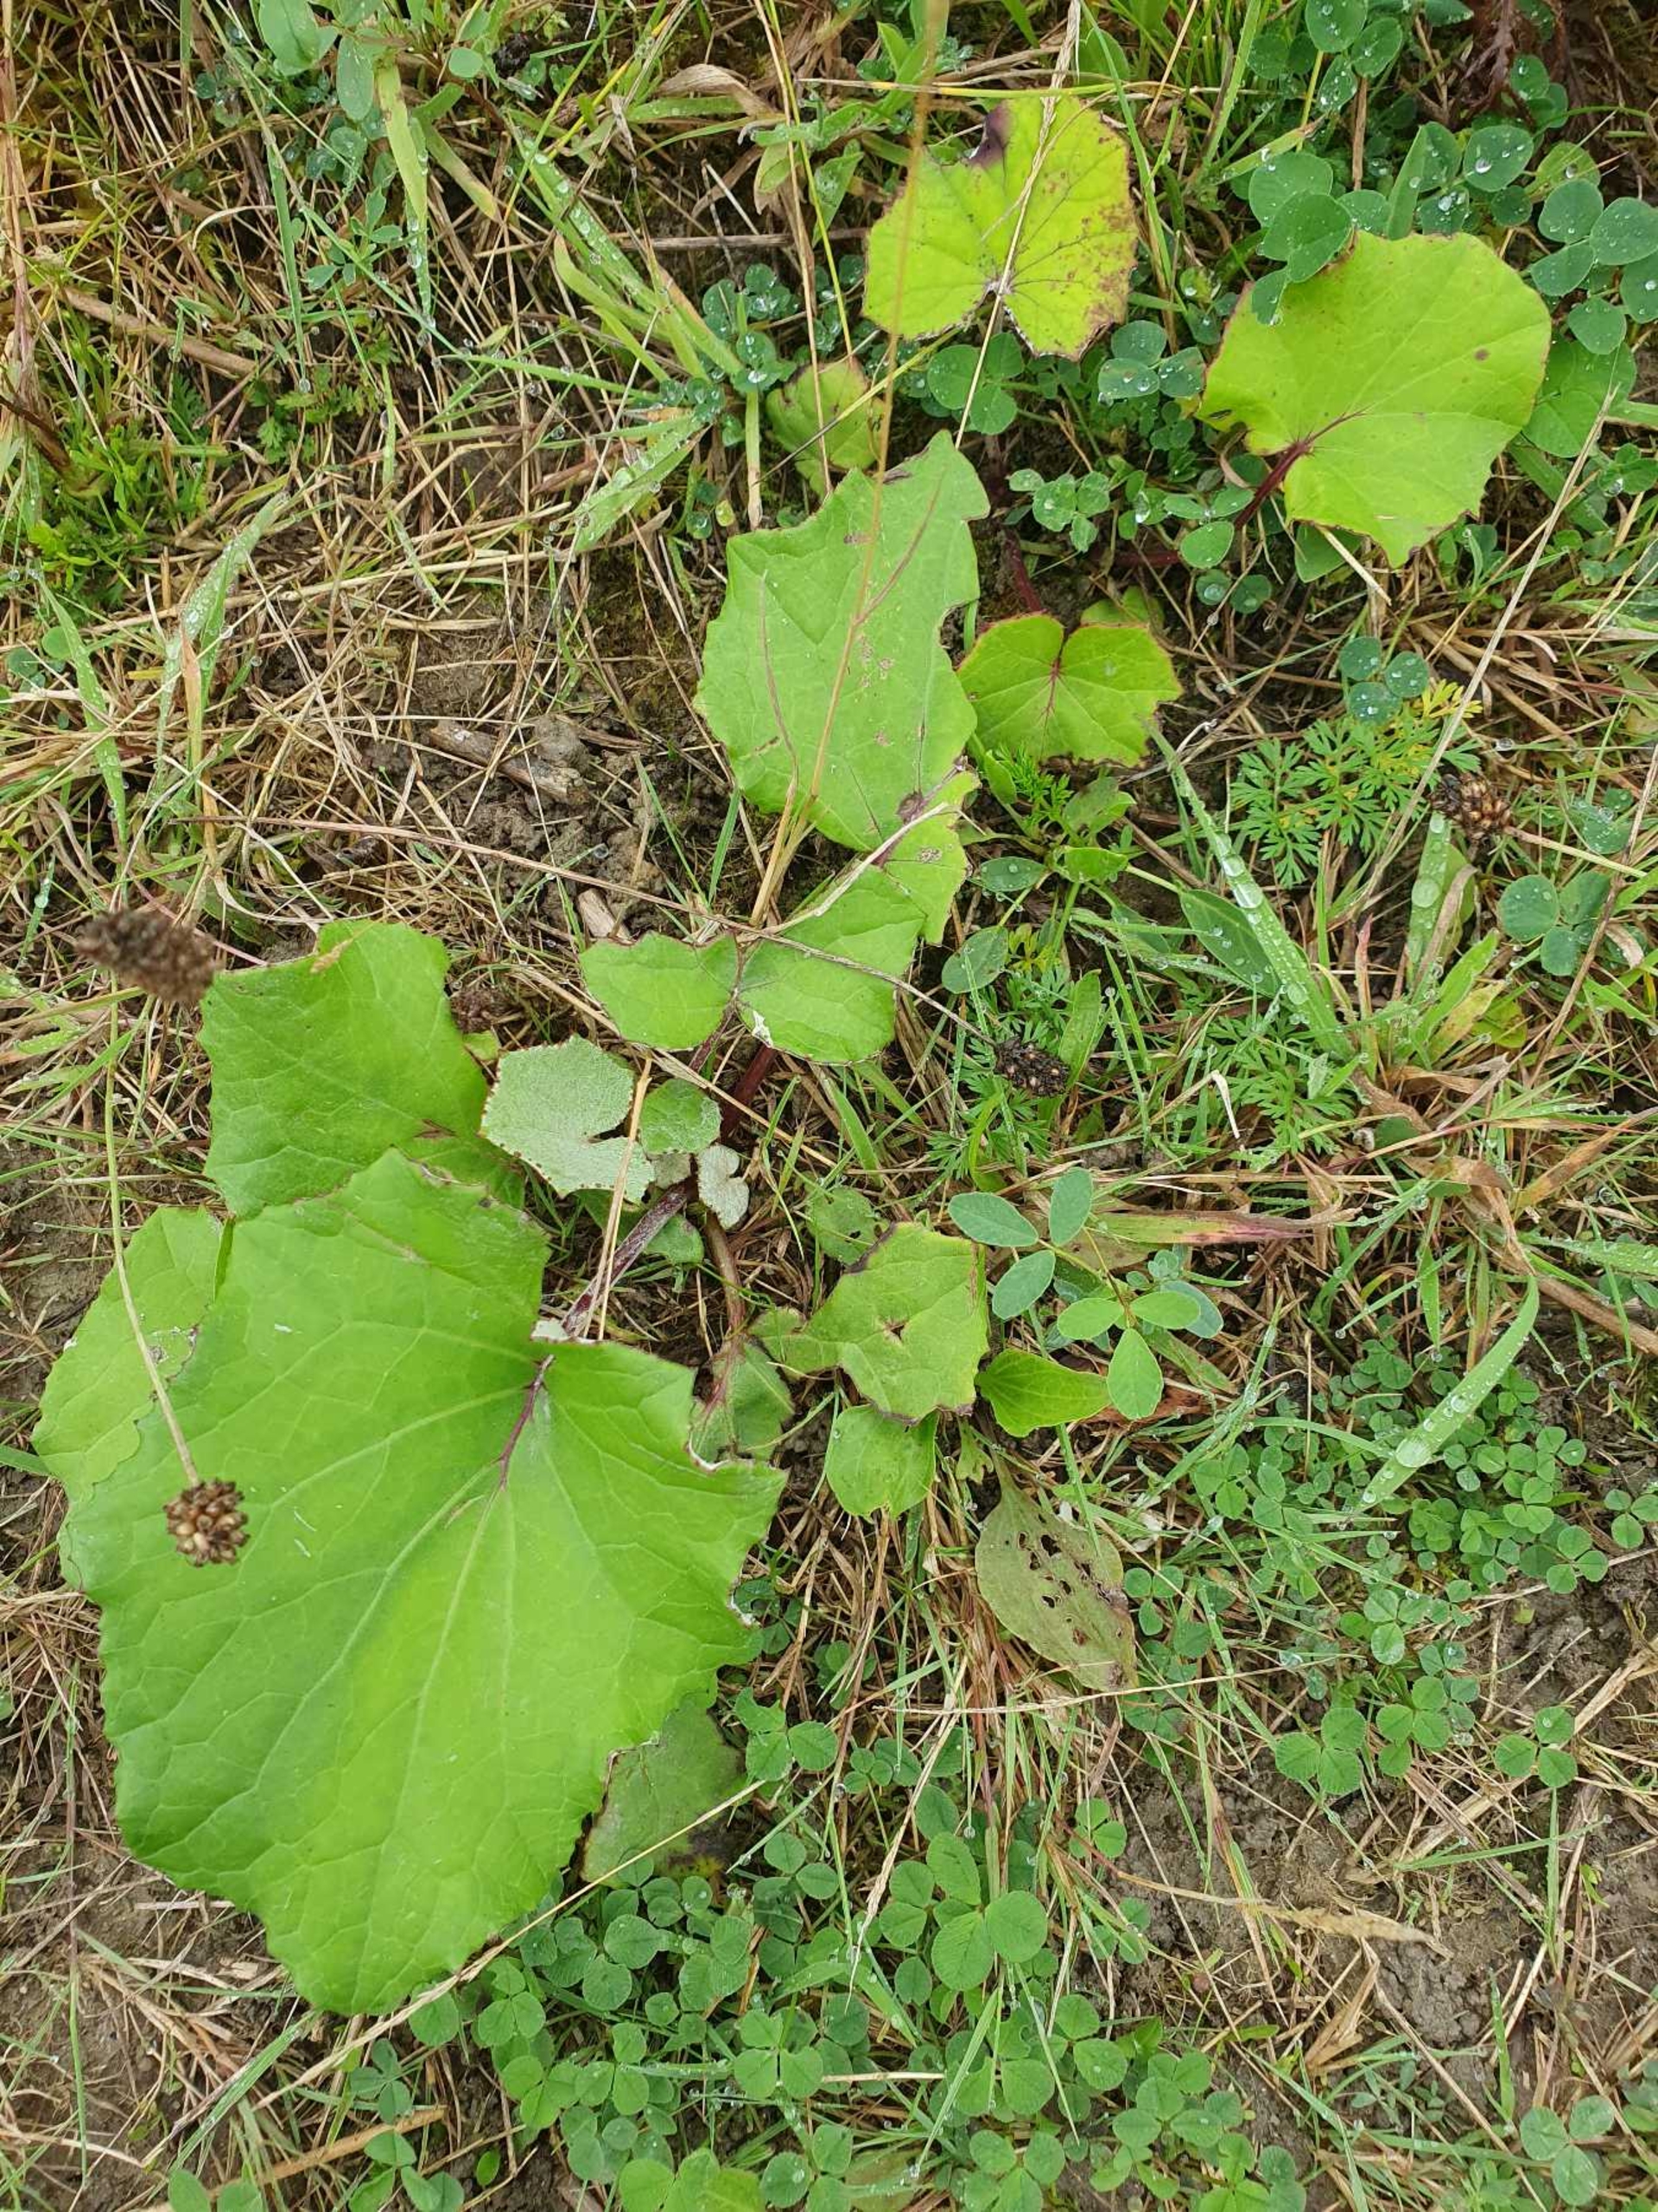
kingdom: Plantae
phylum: Tracheophyta
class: Magnoliopsida
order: Asterales
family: Asteraceae
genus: Tussilago
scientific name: Tussilago farfara
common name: Følfod
